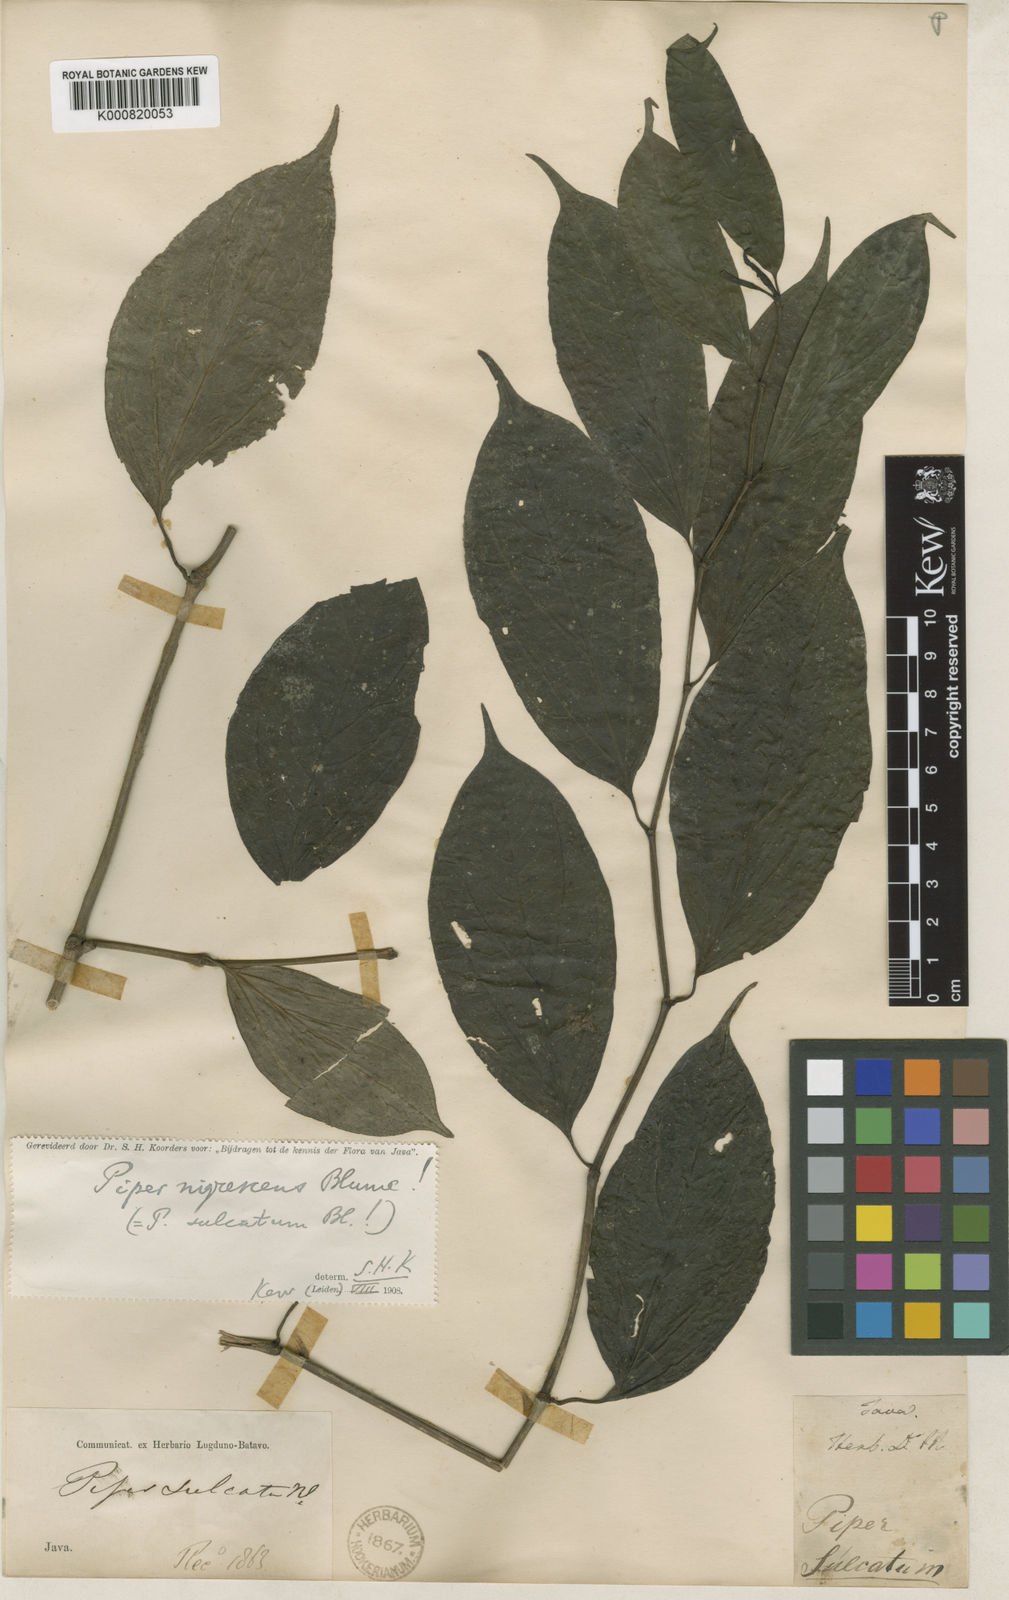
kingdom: Plantae
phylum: Tracheophyta
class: Magnoliopsida
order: Piperales
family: Piperaceae
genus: Piper
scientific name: Piper sulcatum
